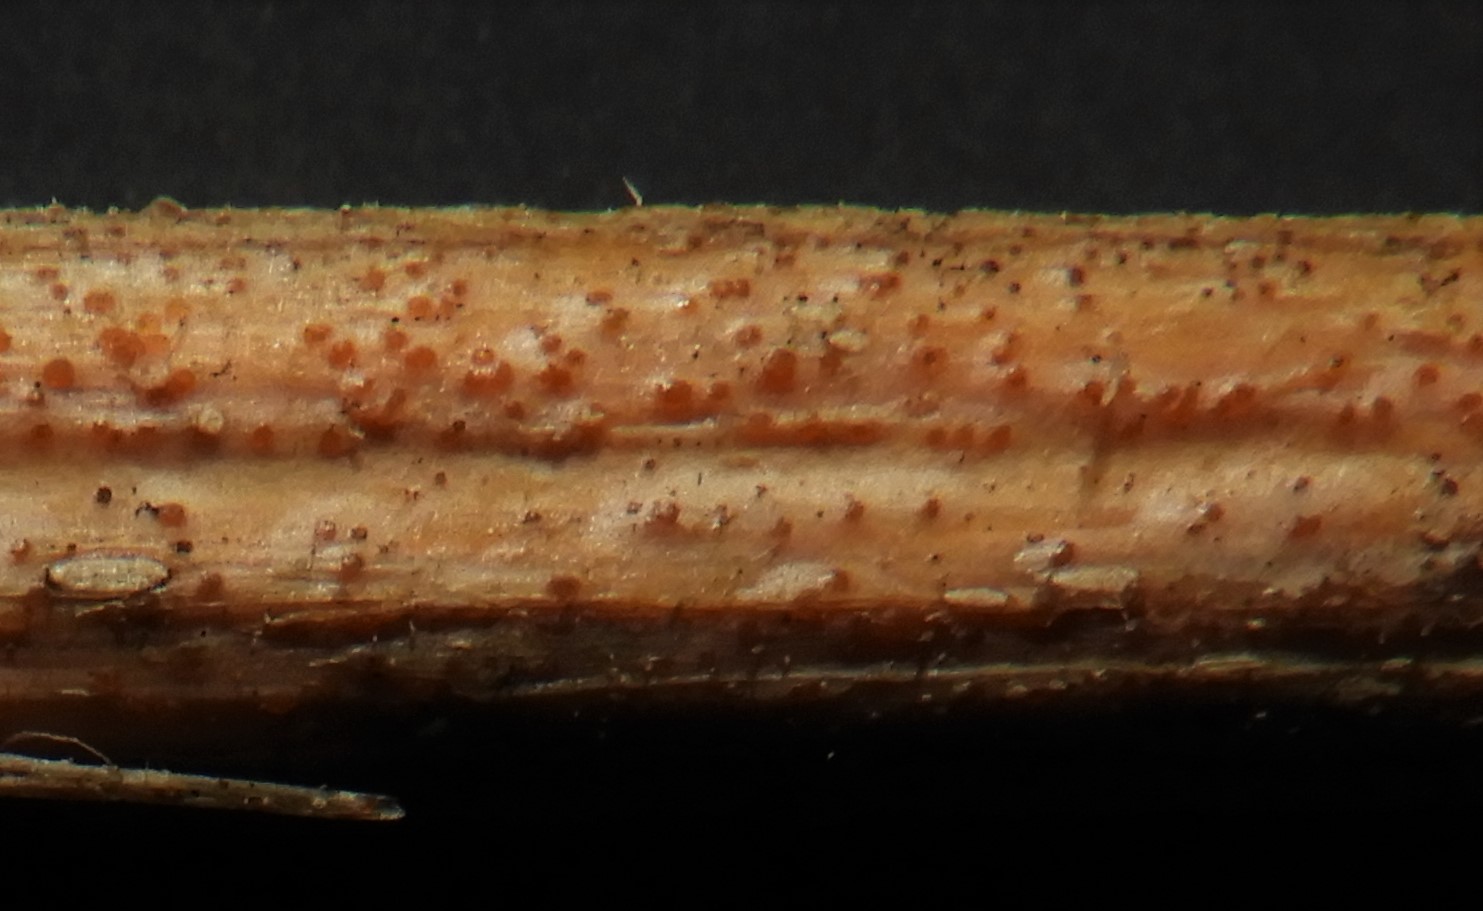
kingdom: Fungi
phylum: Ascomycota
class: Leotiomycetes
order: Helotiales
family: Calloriaceae
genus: Calloria
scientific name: Calloria urticae
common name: nælde-orangeskive
